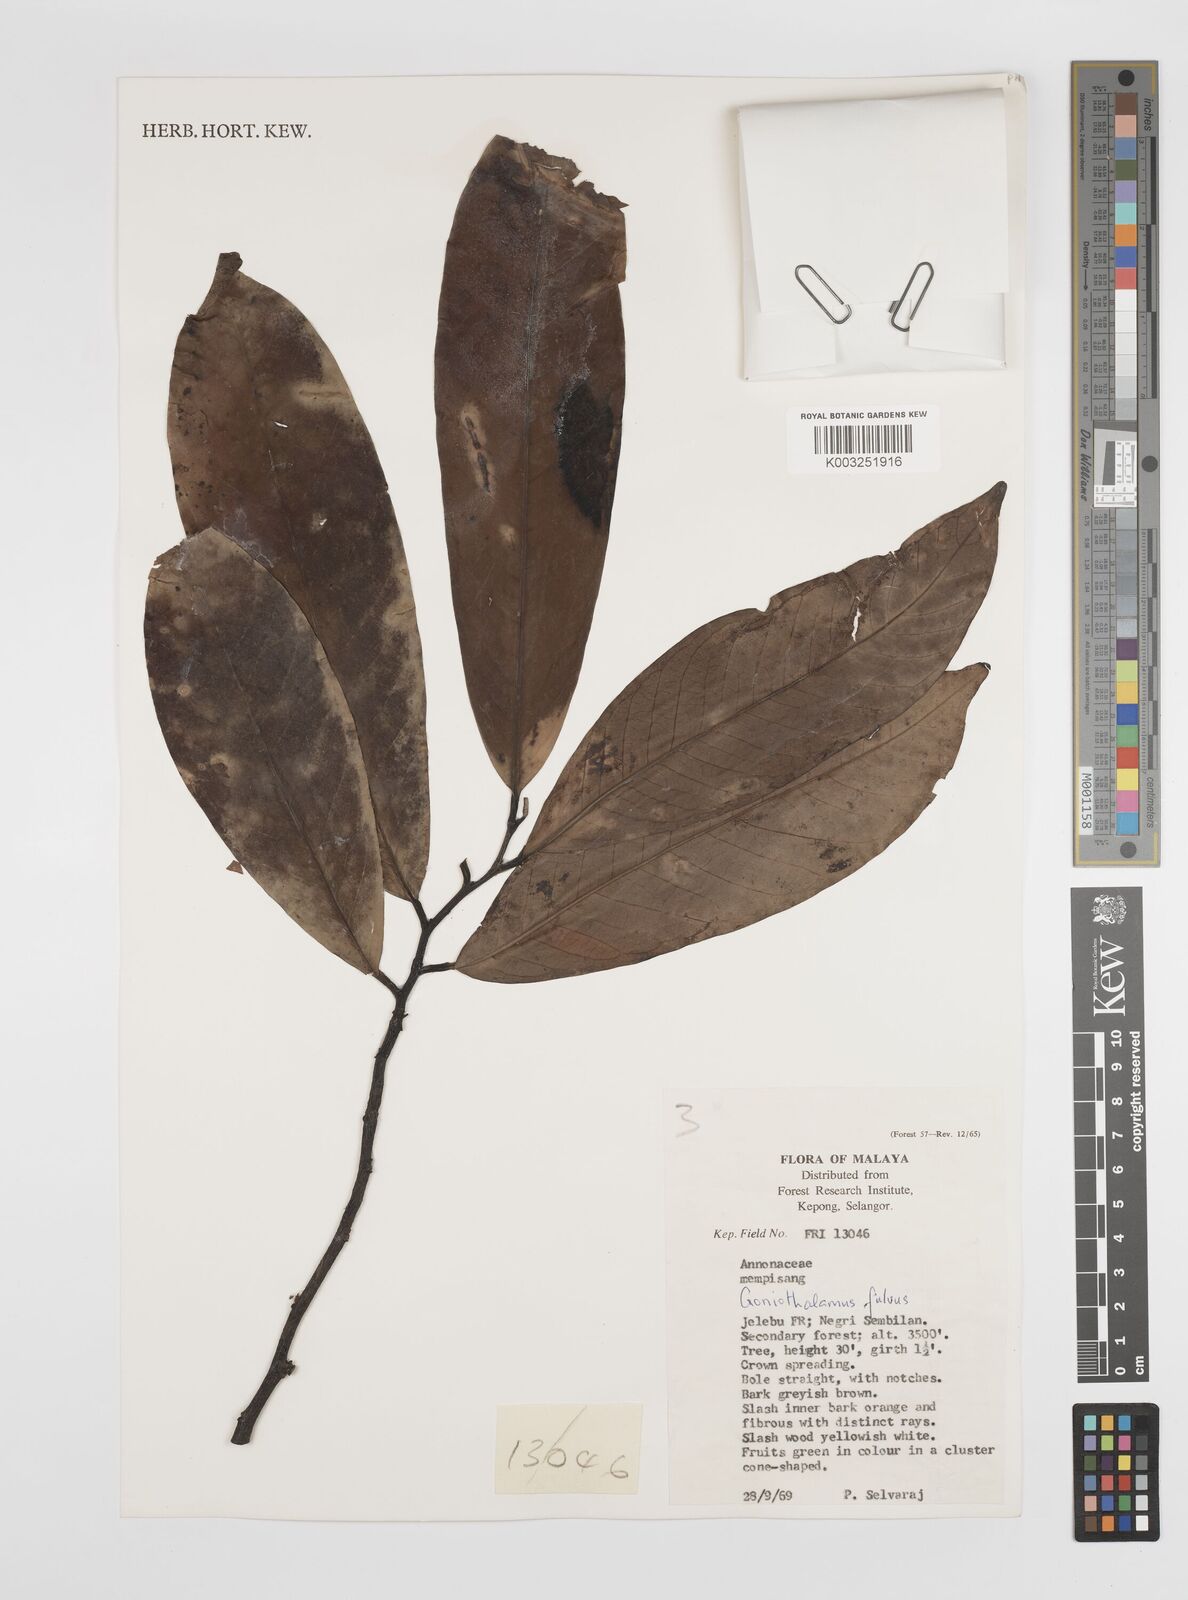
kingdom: Plantae
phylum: Tracheophyta
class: Magnoliopsida
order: Magnoliales
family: Annonaceae
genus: Goniothalamus
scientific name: Goniothalamus fulvus
